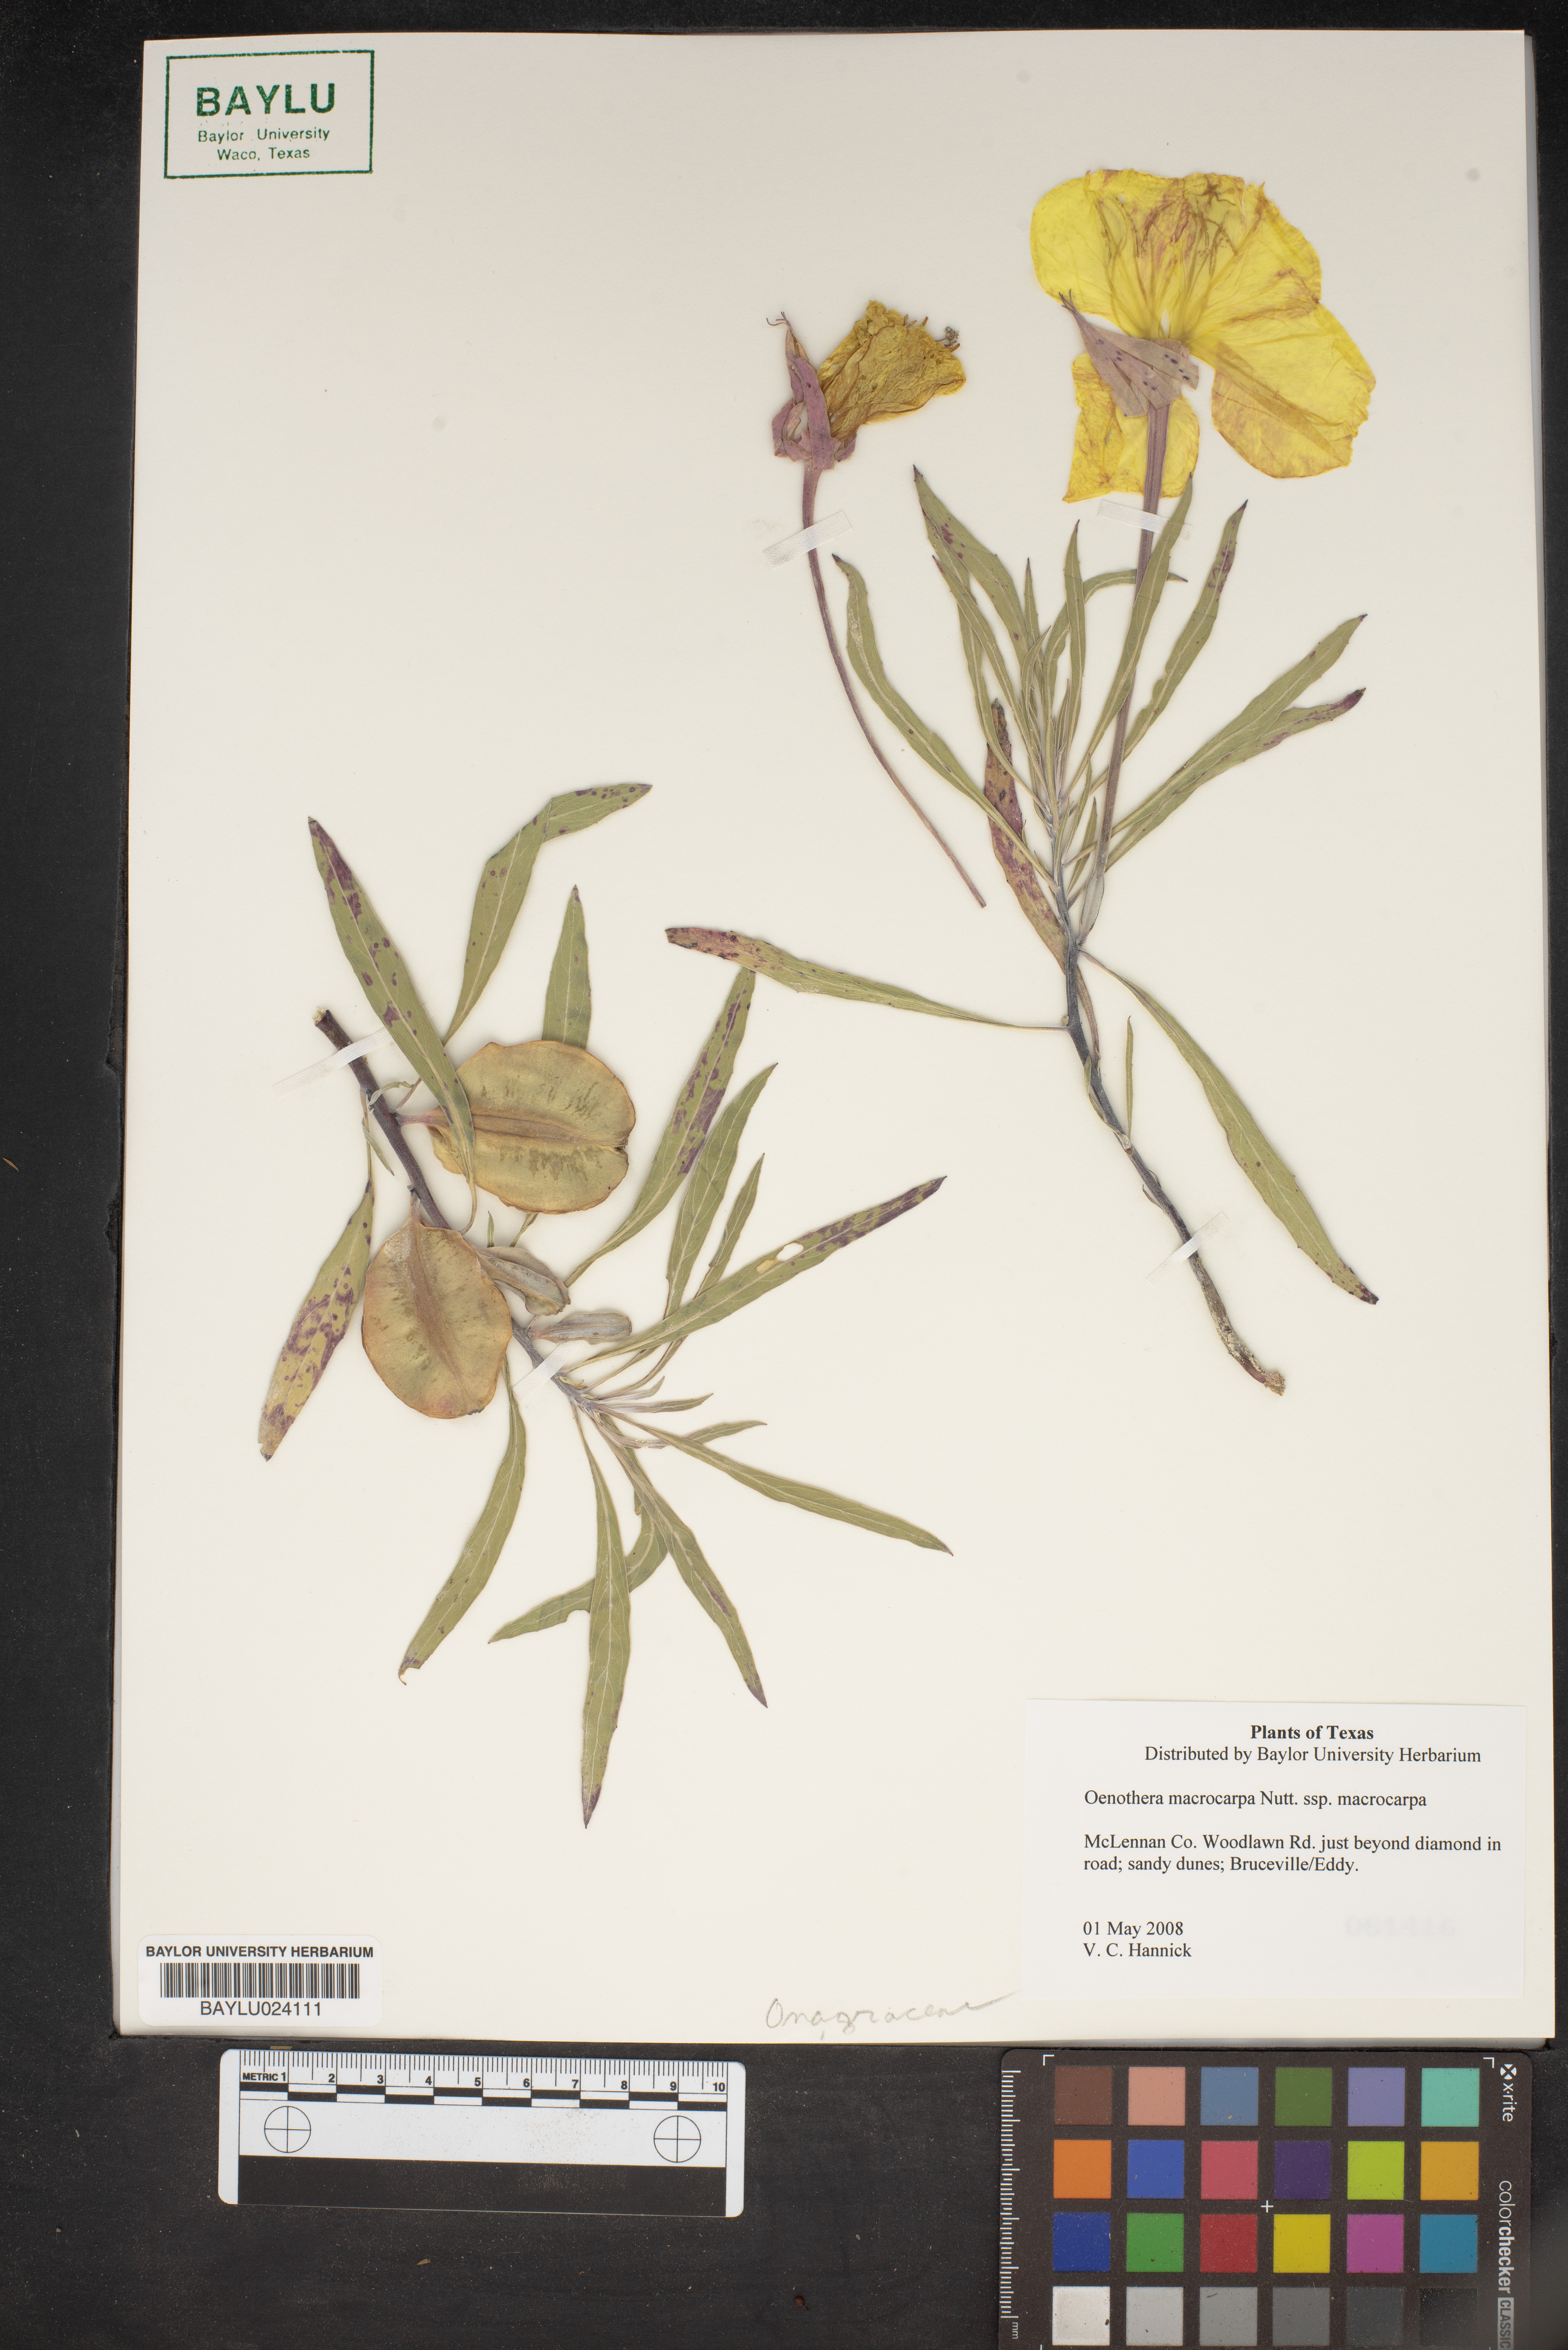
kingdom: Plantae
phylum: Tracheophyta
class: Magnoliopsida
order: Myrtales
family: Onagraceae
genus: Oenothera
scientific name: Oenothera macrocarpa
